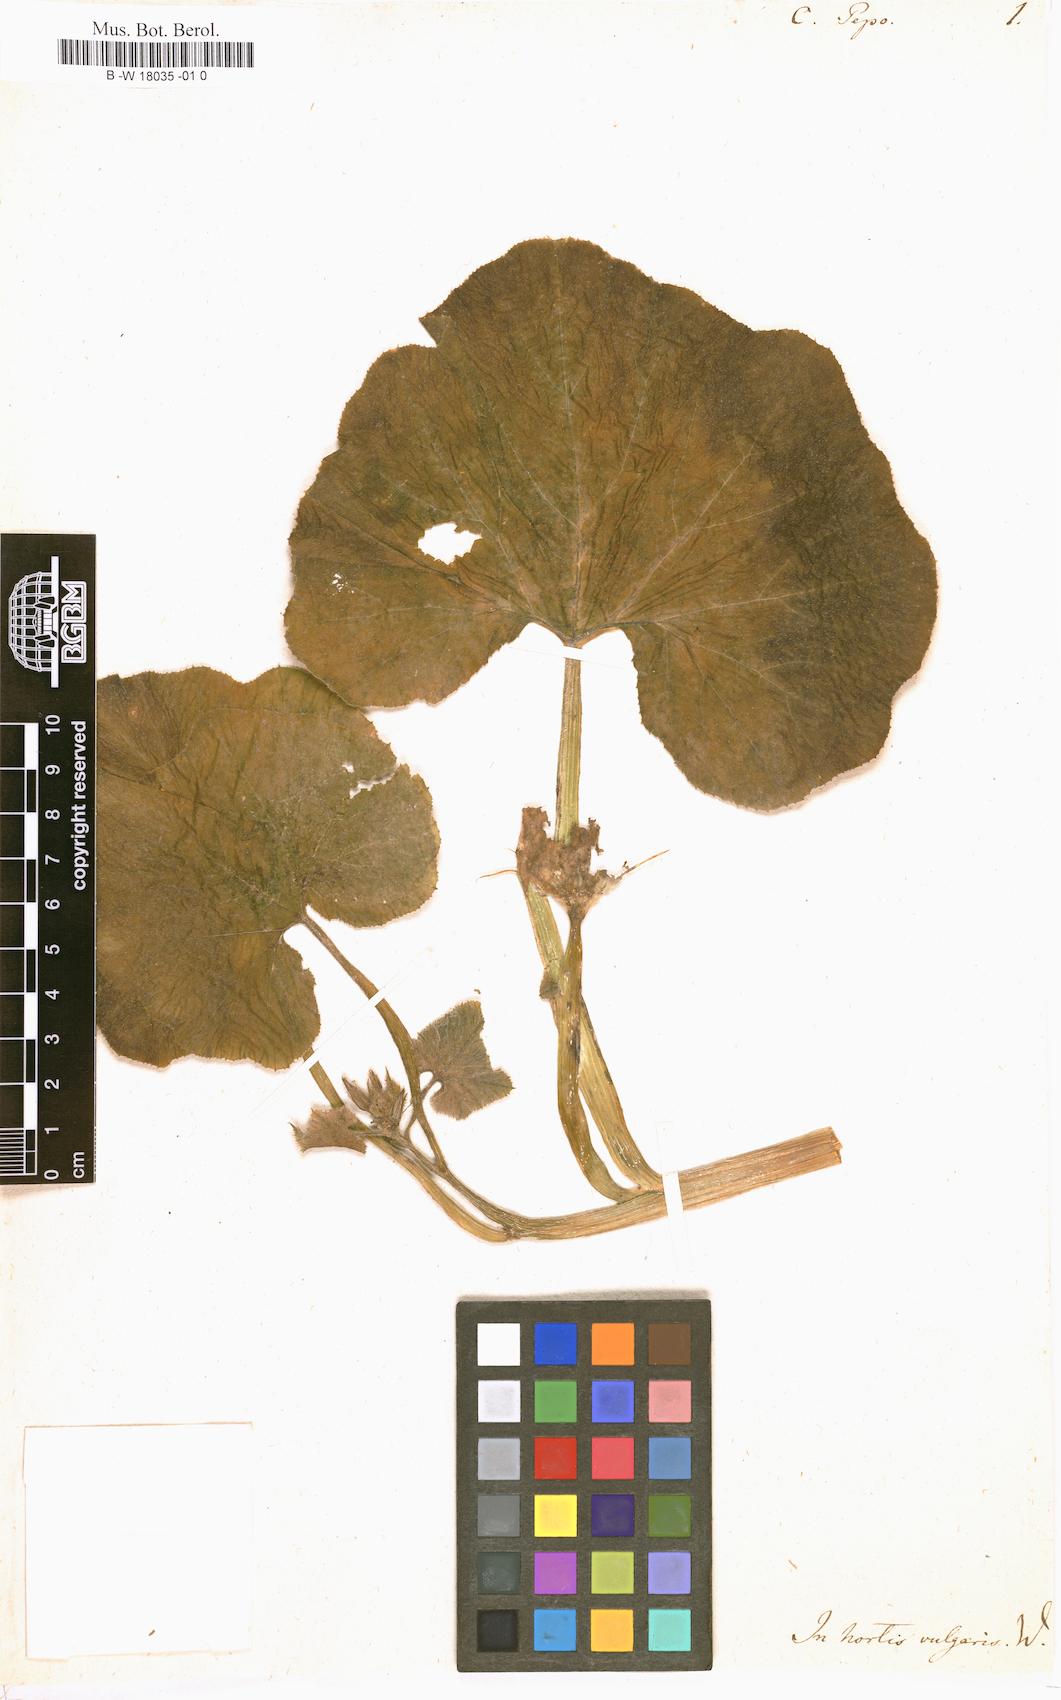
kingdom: Plantae
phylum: Tracheophyta
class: Magnoliopsida
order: Cucurbitales
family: Cucurbitaceae
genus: Cucurbita
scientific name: Cucurbita pepo
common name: Marrow
